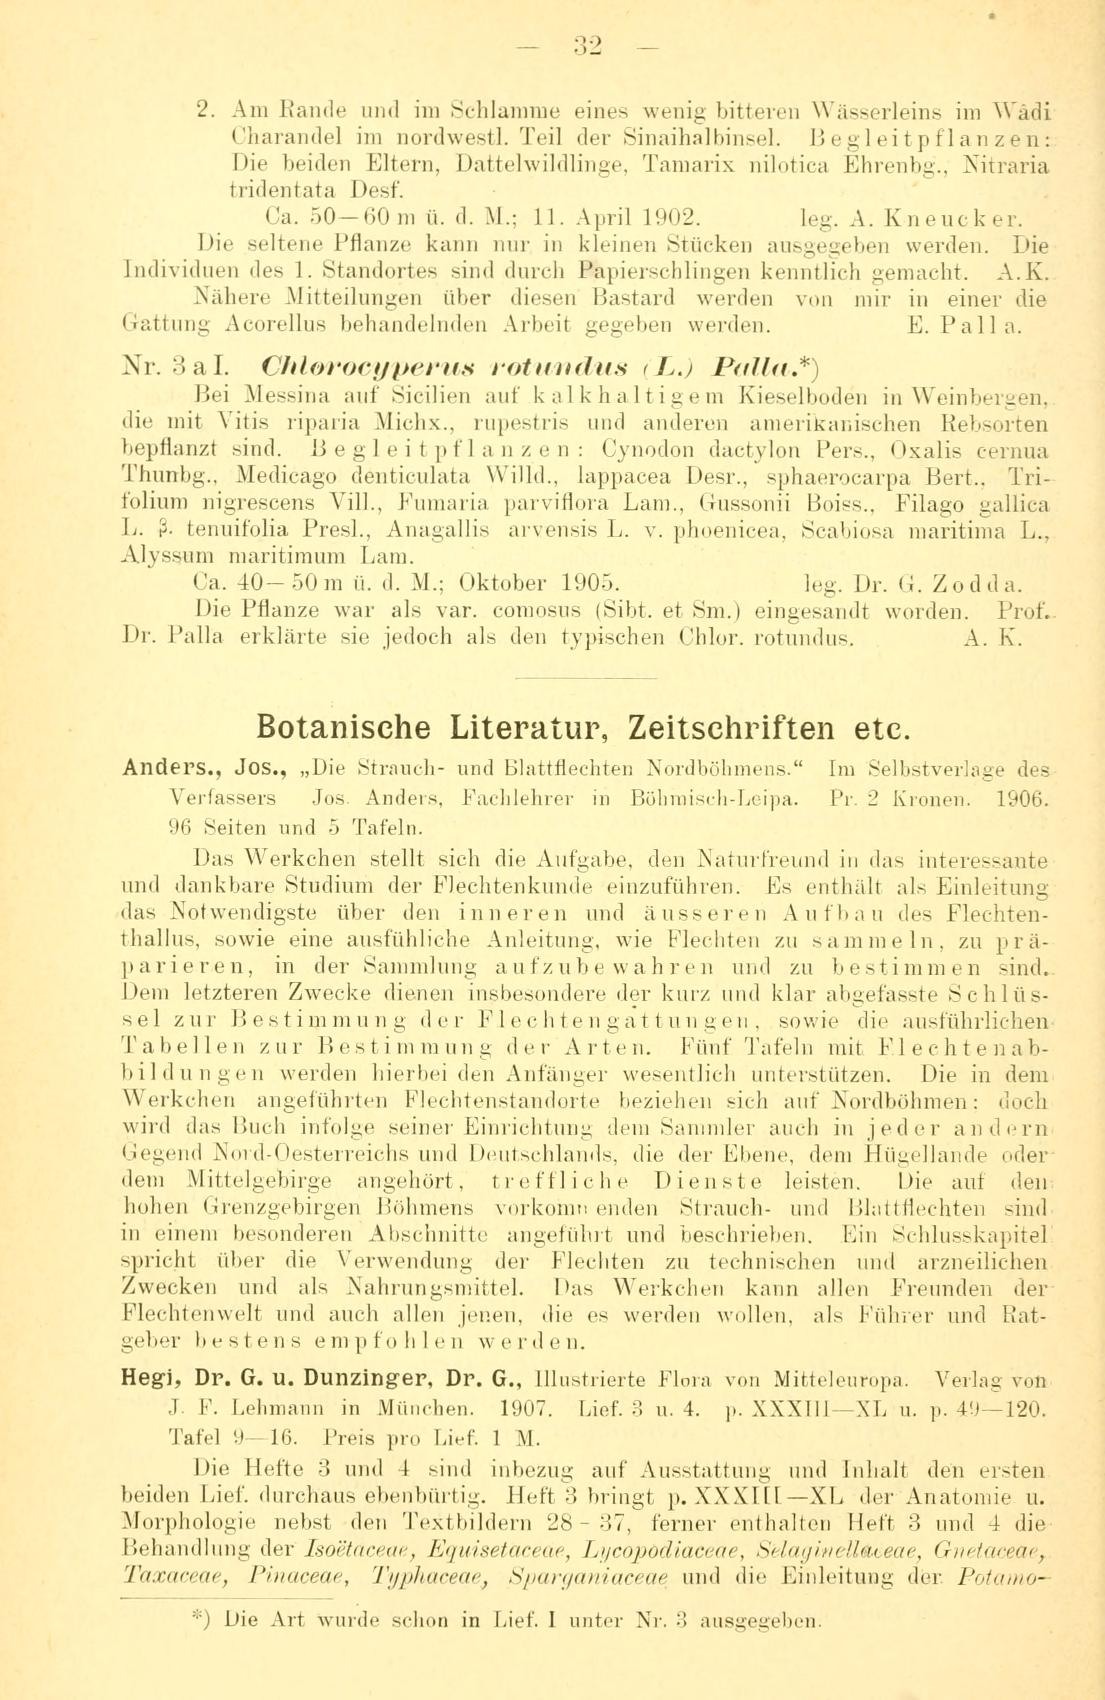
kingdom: Plantae
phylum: Tracheophyta
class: Liliopsida
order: Poales
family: Cyperaceae
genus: Cyperus
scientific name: Cyperus laevigatus
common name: Smooth flat sedge
